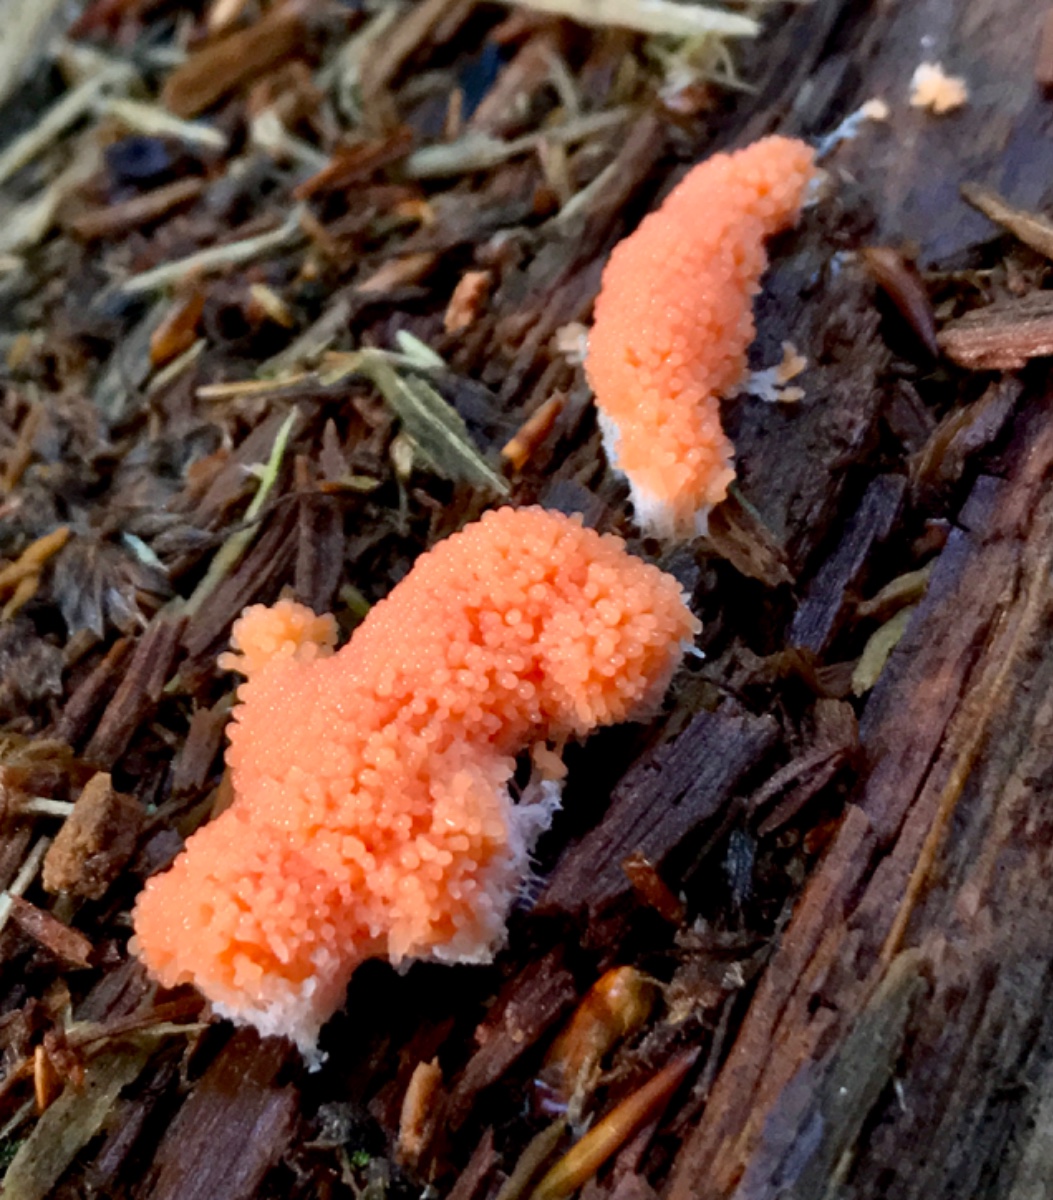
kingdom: Protozoa
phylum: Mycetozoa
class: Myxomycetes
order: Cribrariales
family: Tubiferaceae
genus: Tubifera
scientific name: Tubifera ferruginosa
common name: kanel-støvrør
